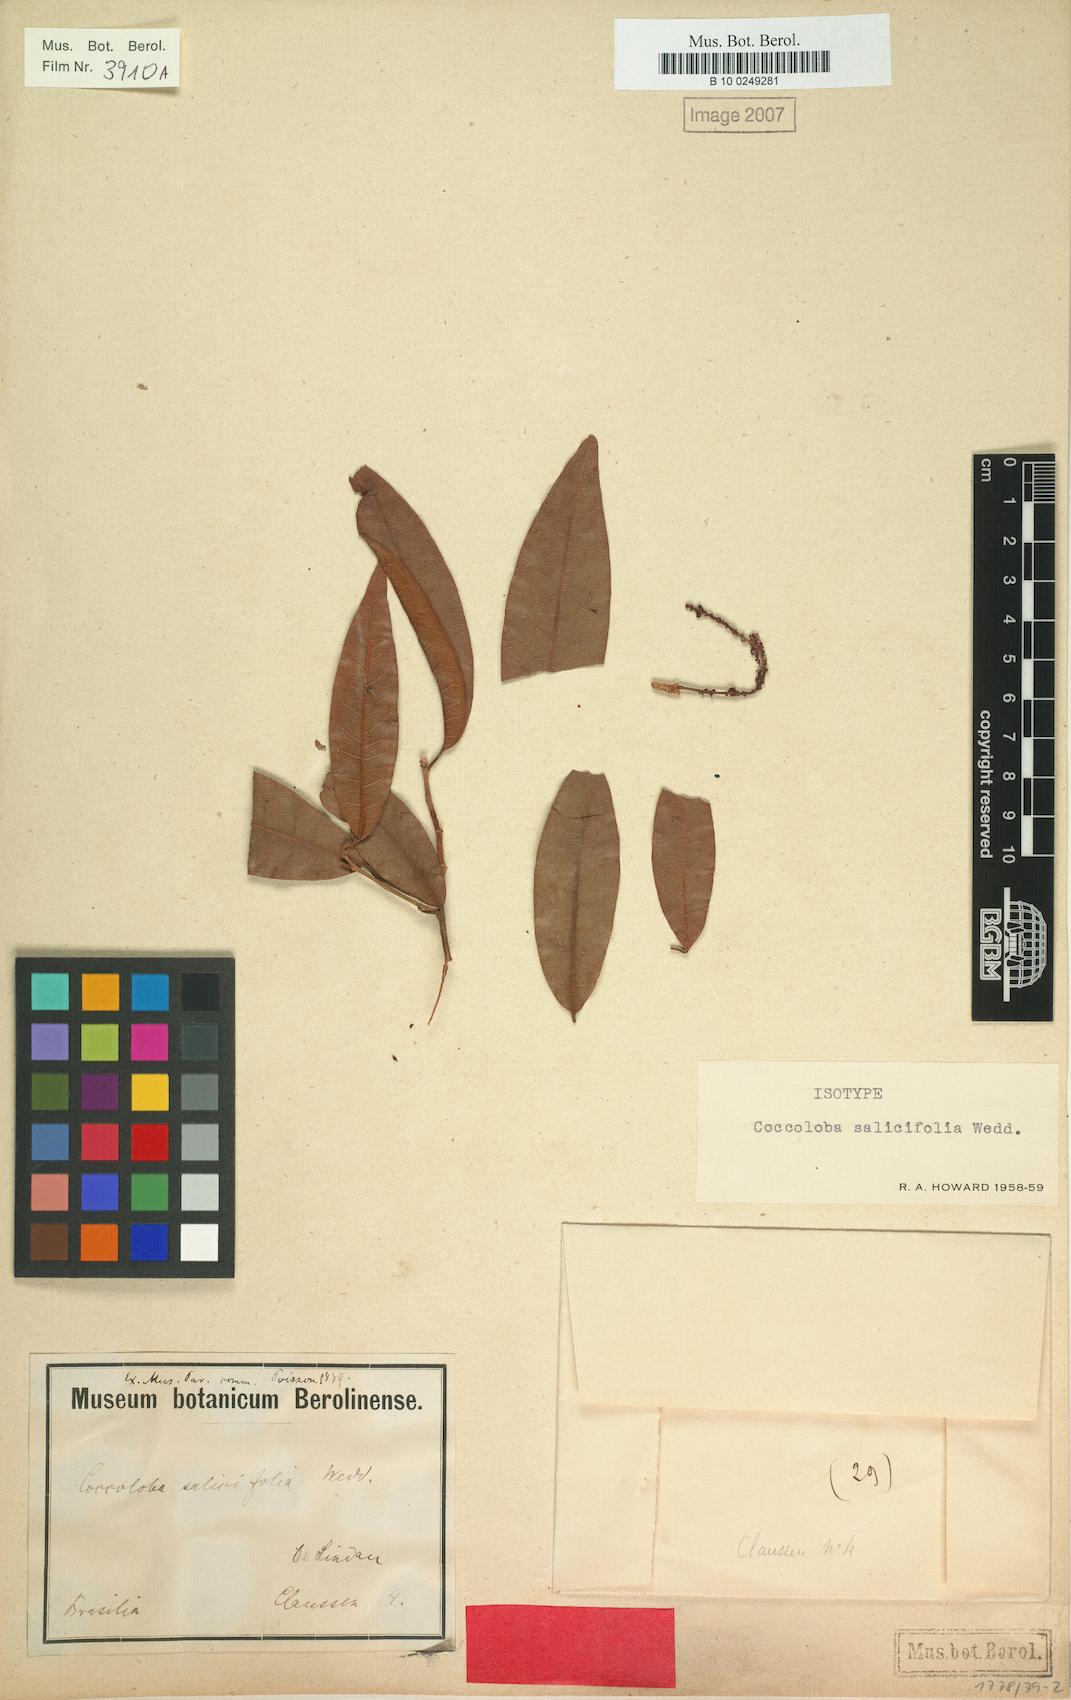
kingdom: Plantae
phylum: Tracheophyta
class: Magnoliopsida
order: Caryophyllales
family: Polygonaceae
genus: Coccoloba
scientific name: Coccoloba salicifolia
